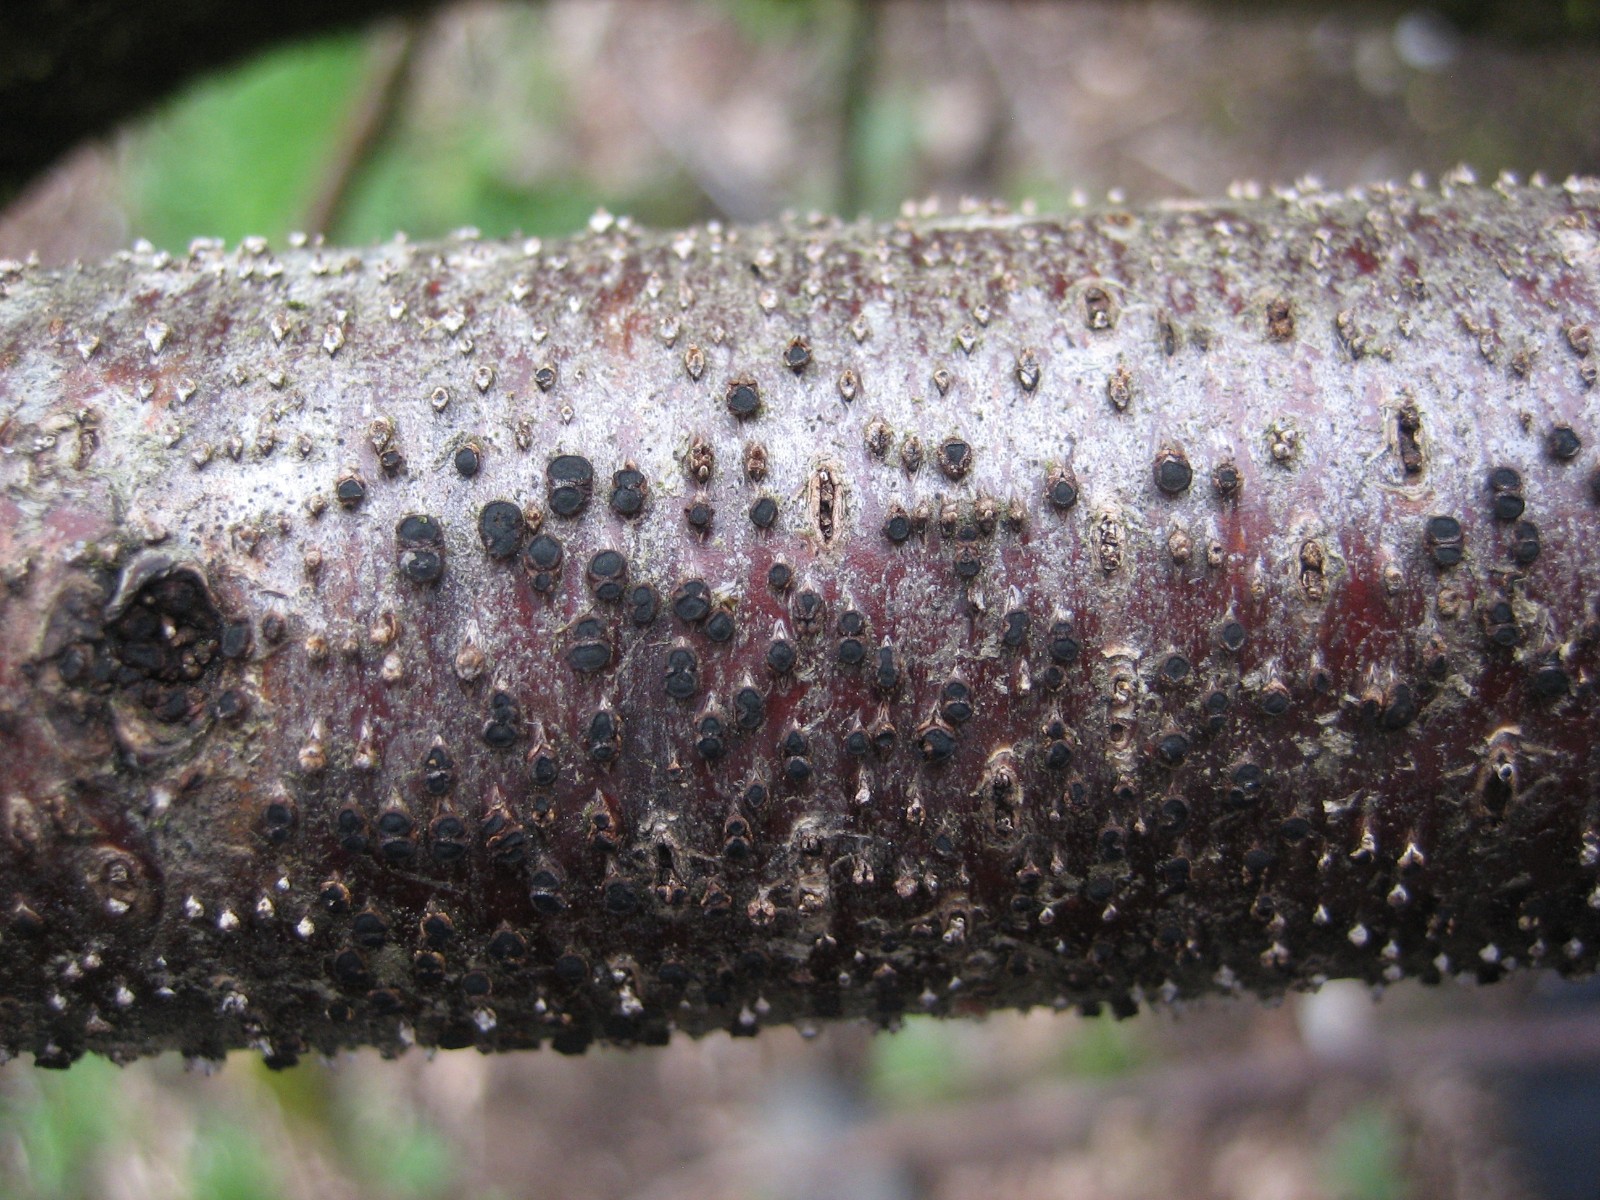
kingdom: Fungi
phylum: Ascomycota
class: Leotiomycetes
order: Helotiales
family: Dermateaceae
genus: Dermea
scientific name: Dermea cerasi
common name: kirsebær-klyngeskive
